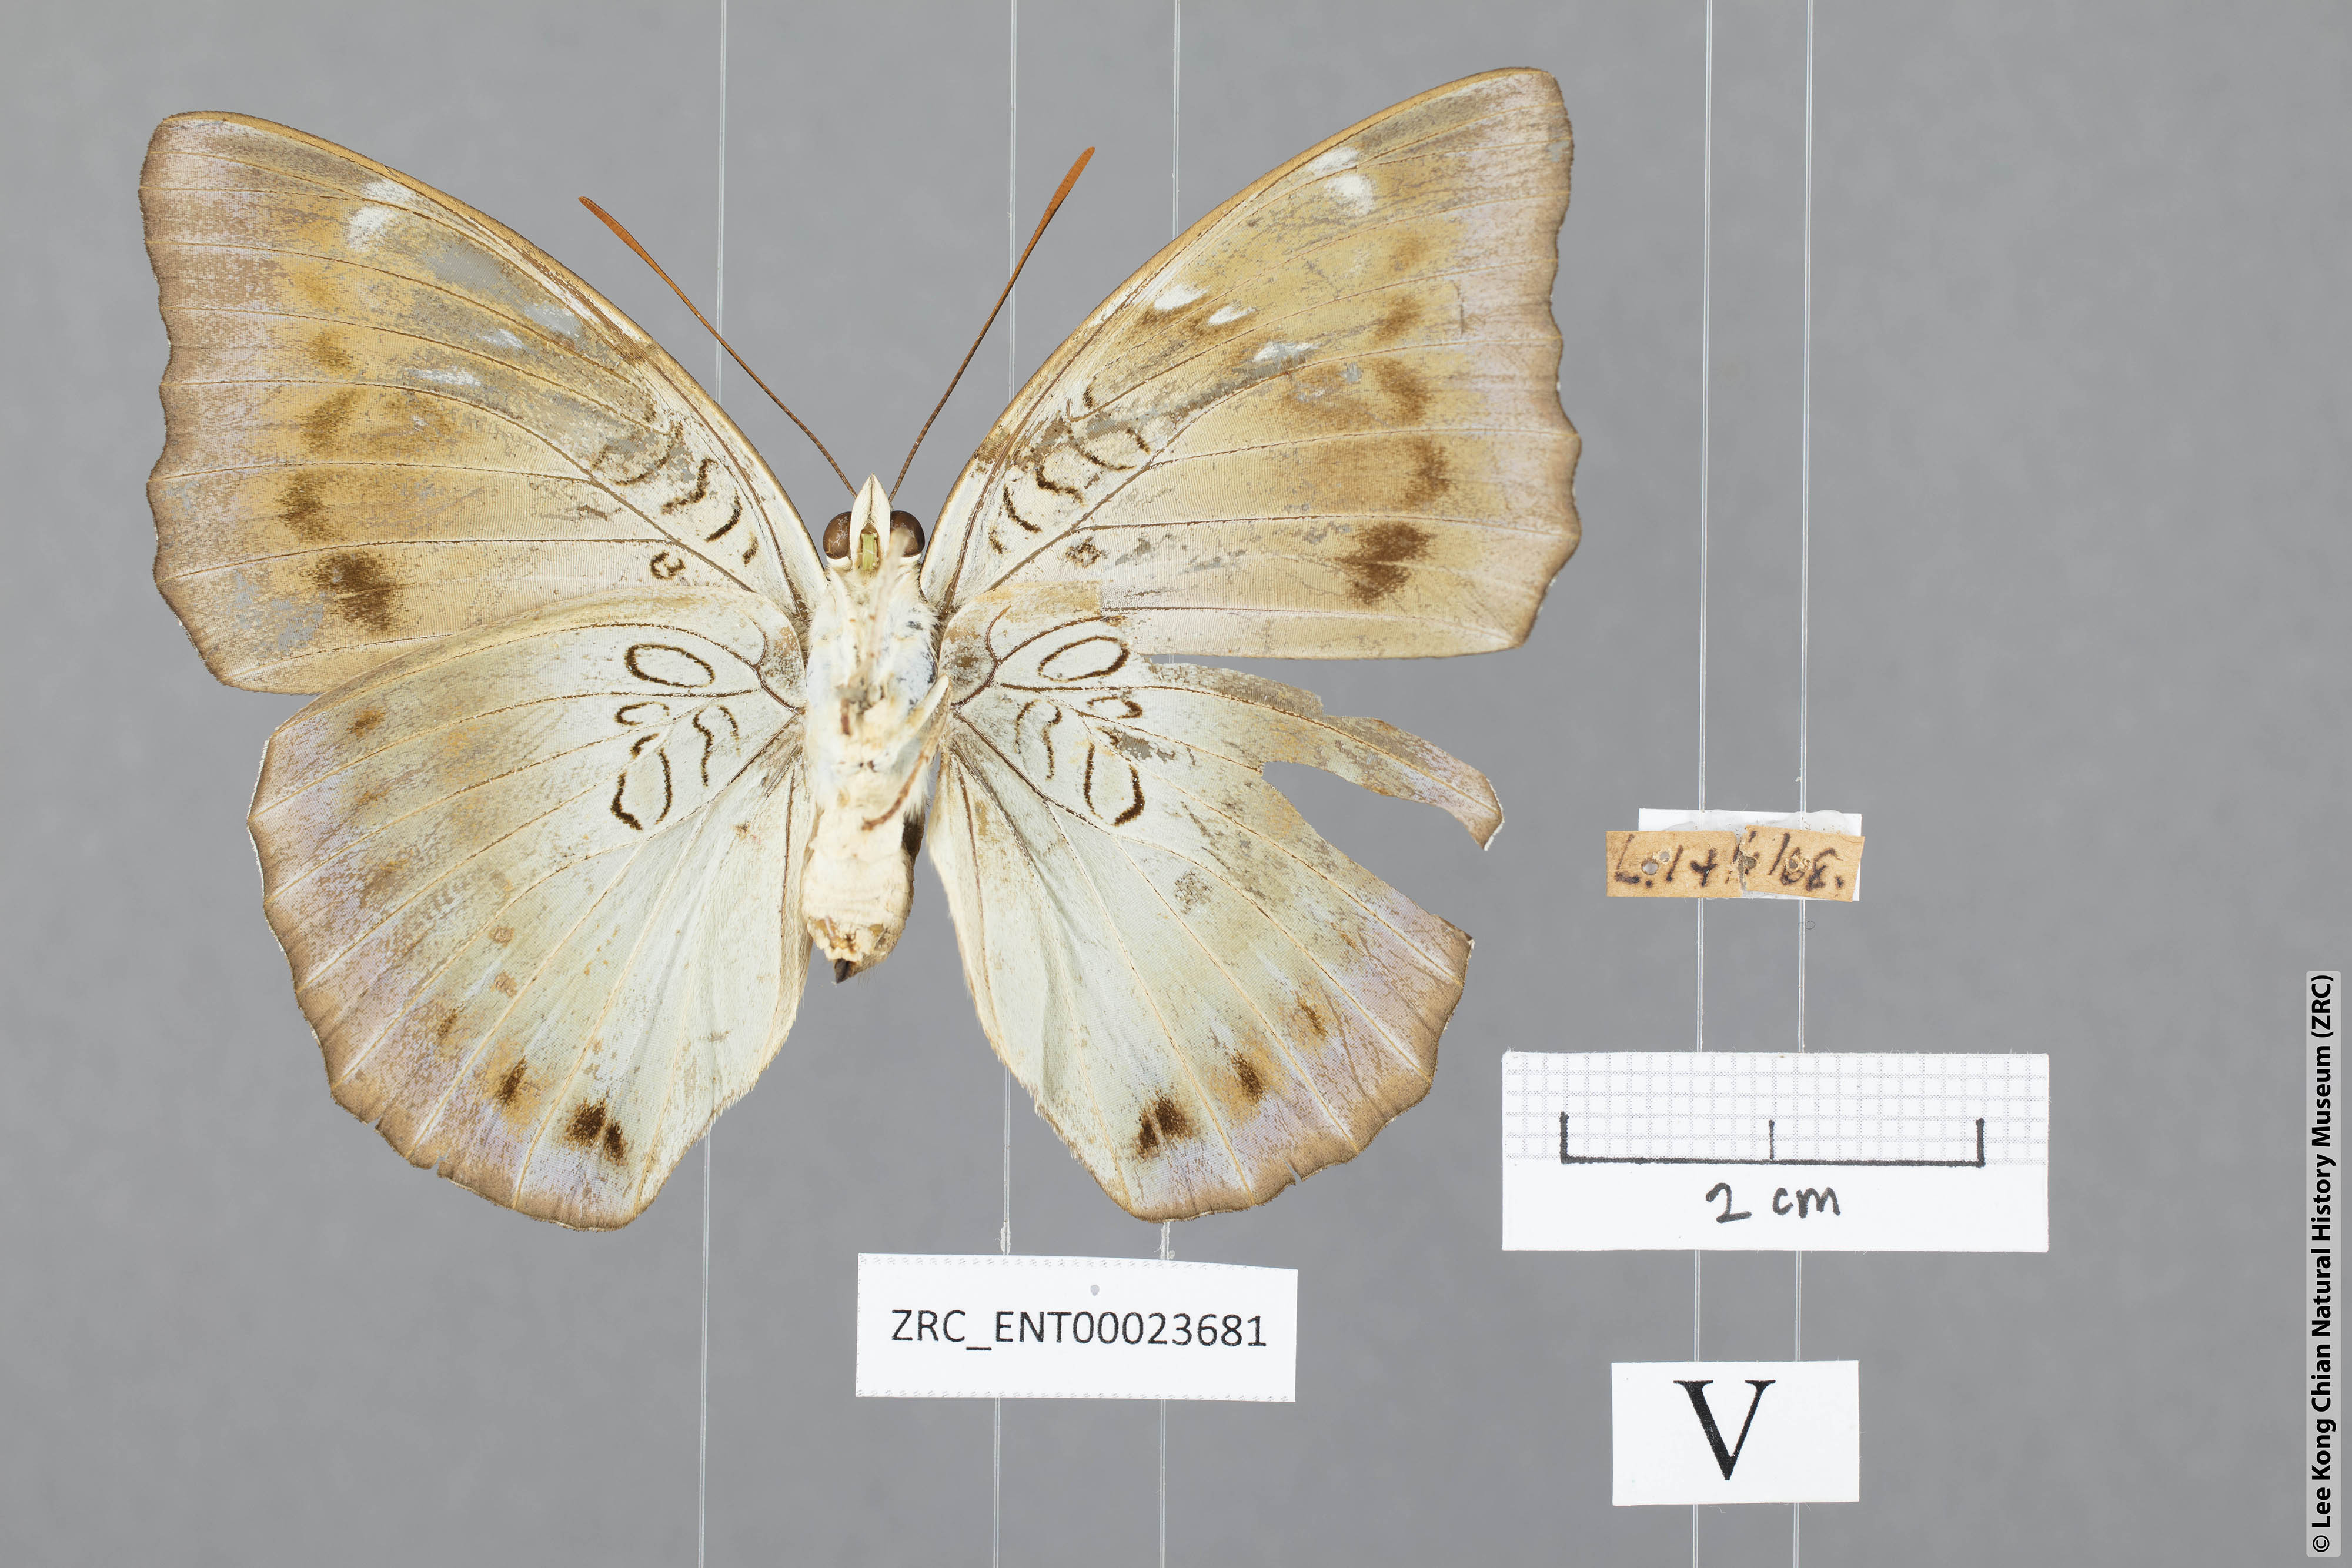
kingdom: Animalia
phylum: Arthropoda
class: Insecta
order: Lepidoptera
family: Nymphalidae
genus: Euthalia
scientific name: Euthalia phemius
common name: White-edged blue baron
